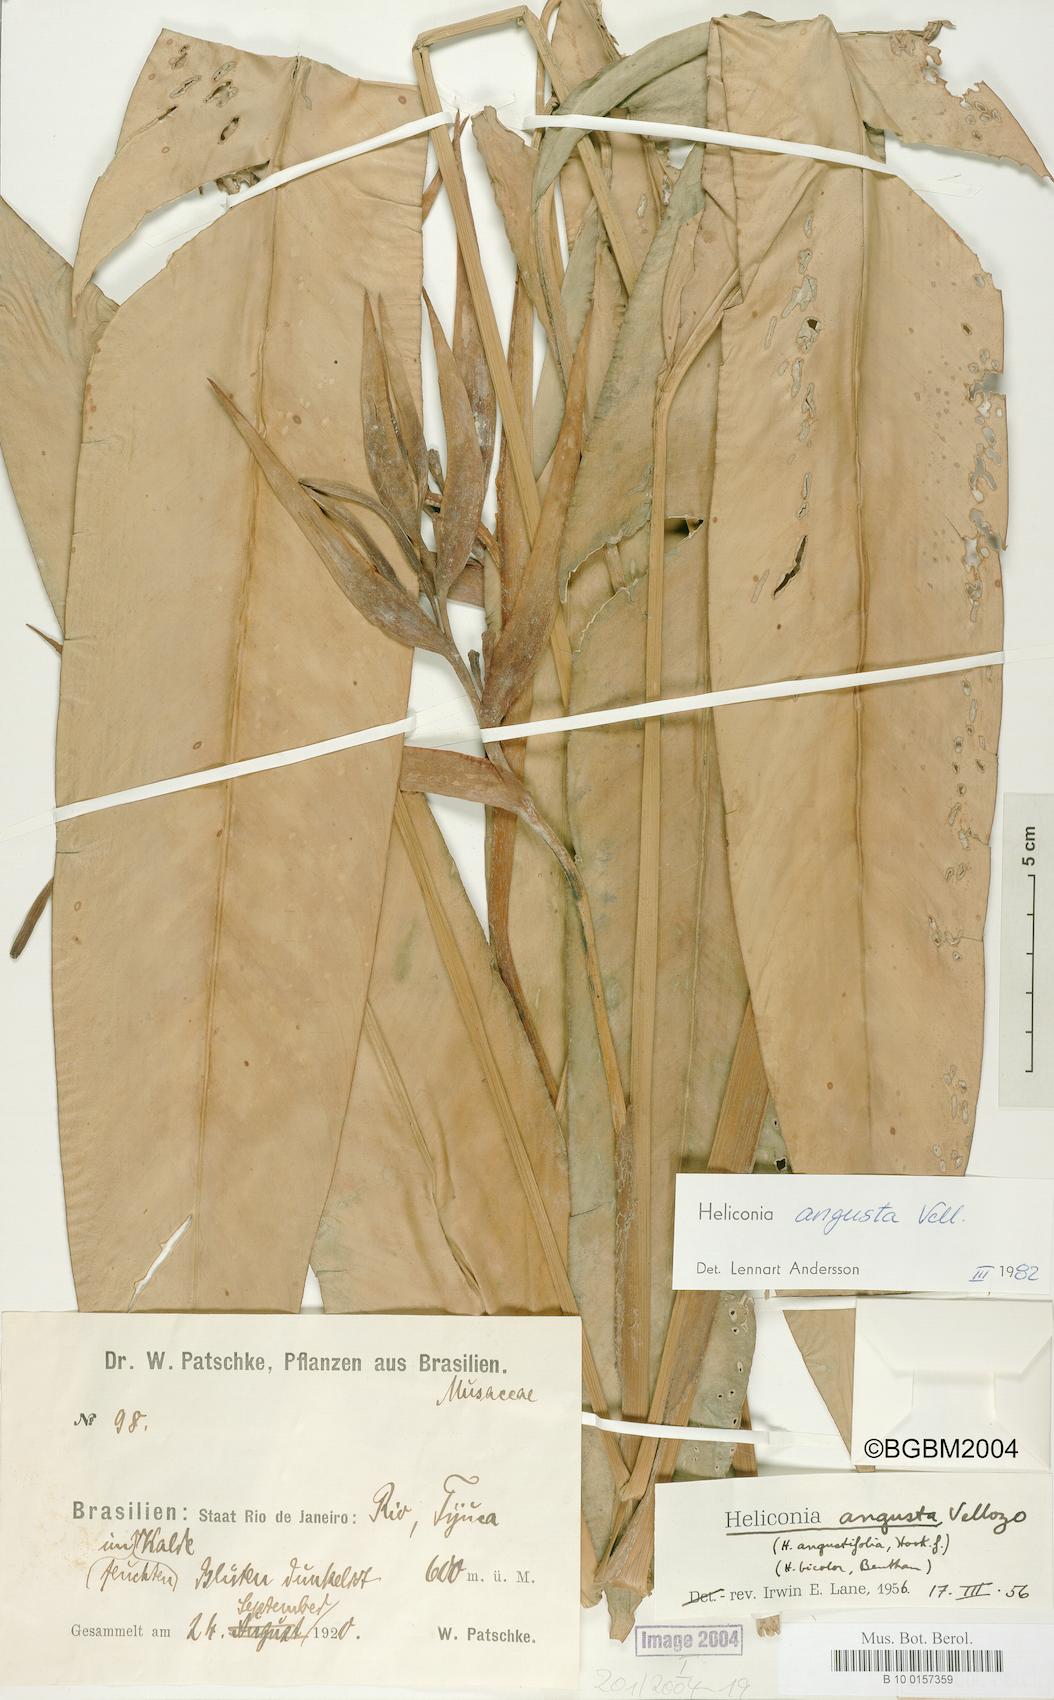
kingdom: Plantae
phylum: Tracheophyta
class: Liliopsida
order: Zingiberales
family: Heliconiaceae
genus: Heliconia
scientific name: Heliconia angusta
